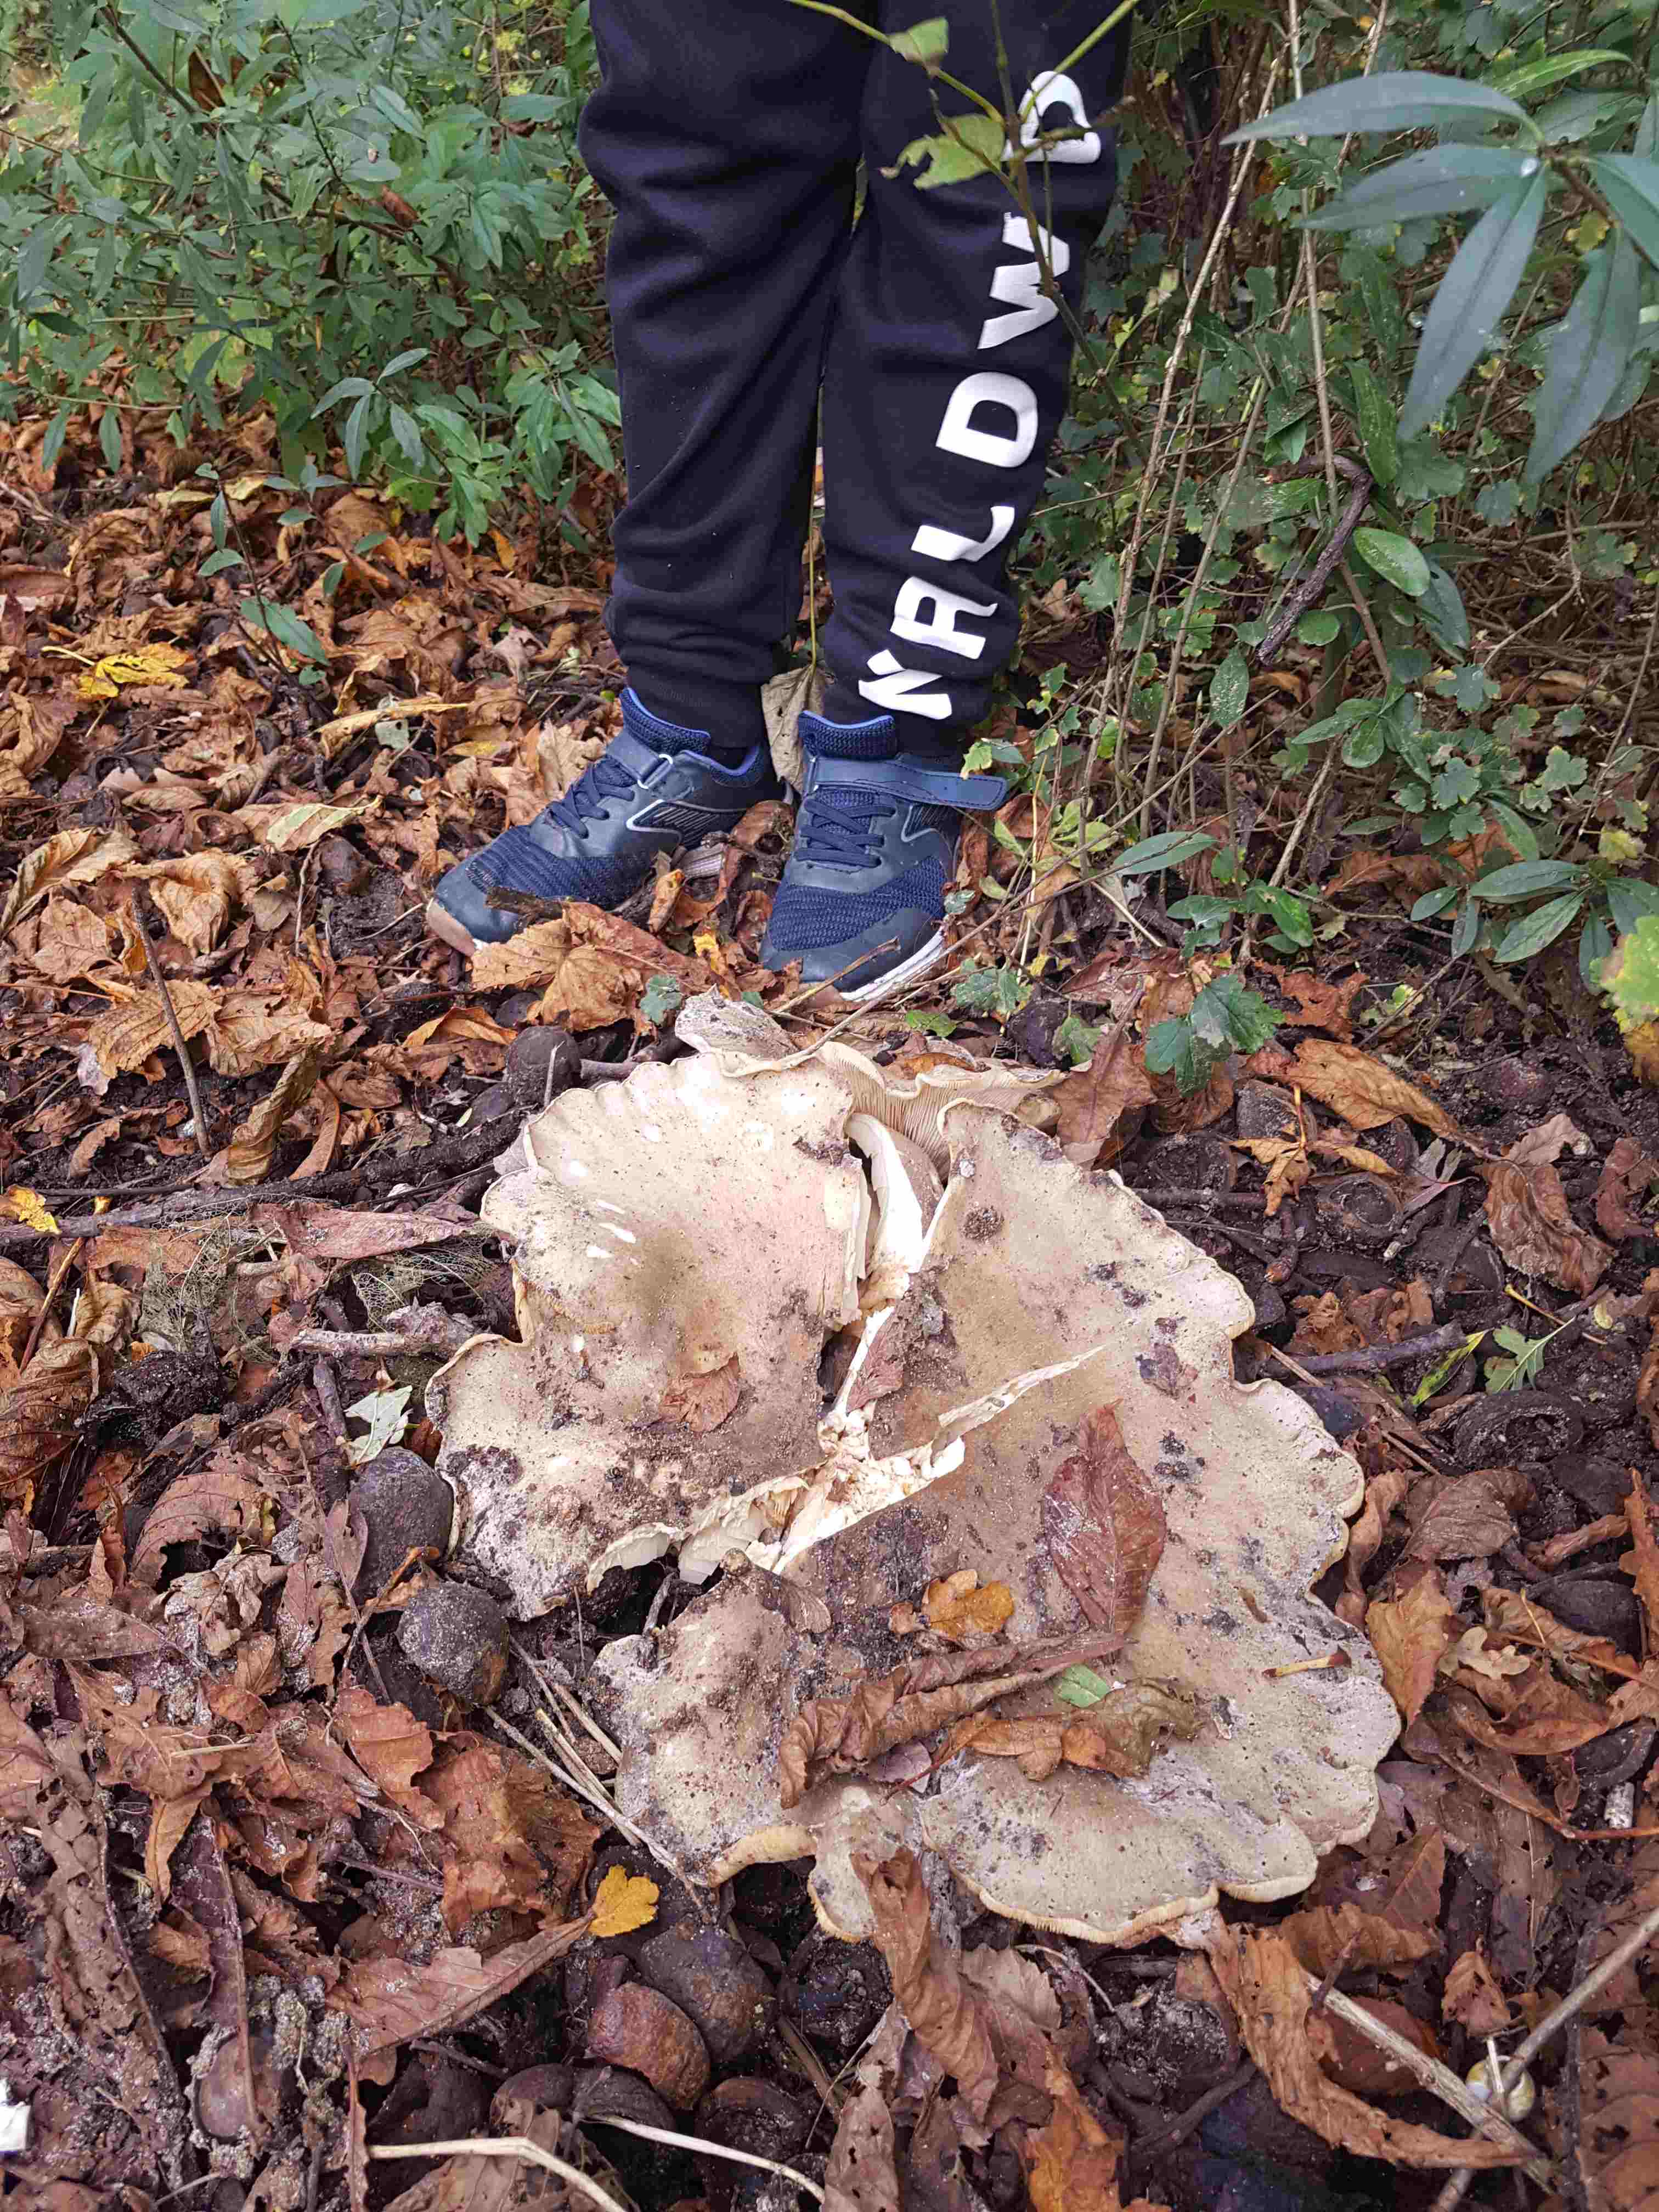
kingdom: Fungi
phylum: Basidiomycota
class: Agaricomycetes
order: Agaricales
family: Tricholomataceae
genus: Clitocybe
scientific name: Clitocybe nebularis
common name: tåge-tragthat
